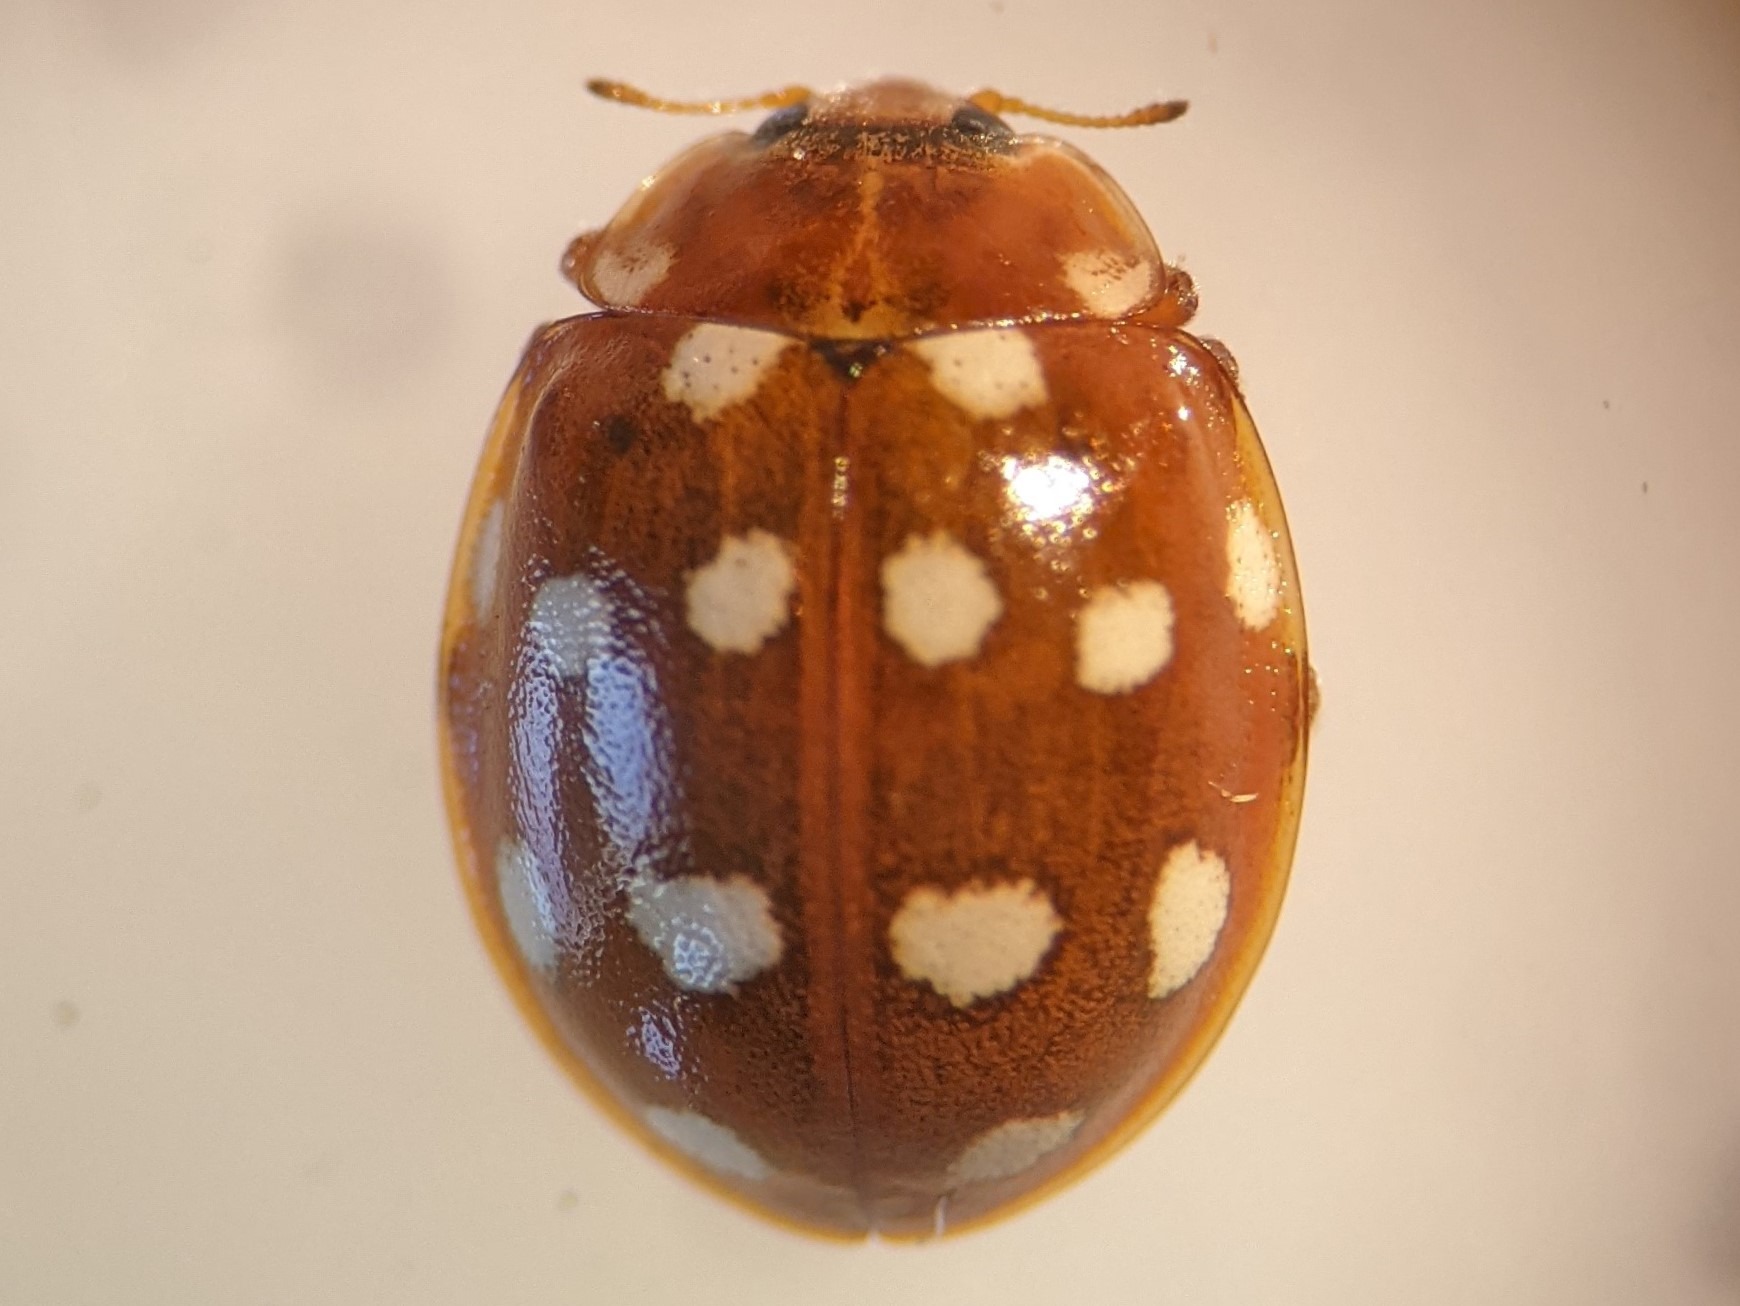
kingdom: Animalia
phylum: Arthropoda
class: Insecta
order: Coleoptera
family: Coccinellidae
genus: Calvia
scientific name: Calvia quatuordecimguttata
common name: Fjortenplettet mariehøne
